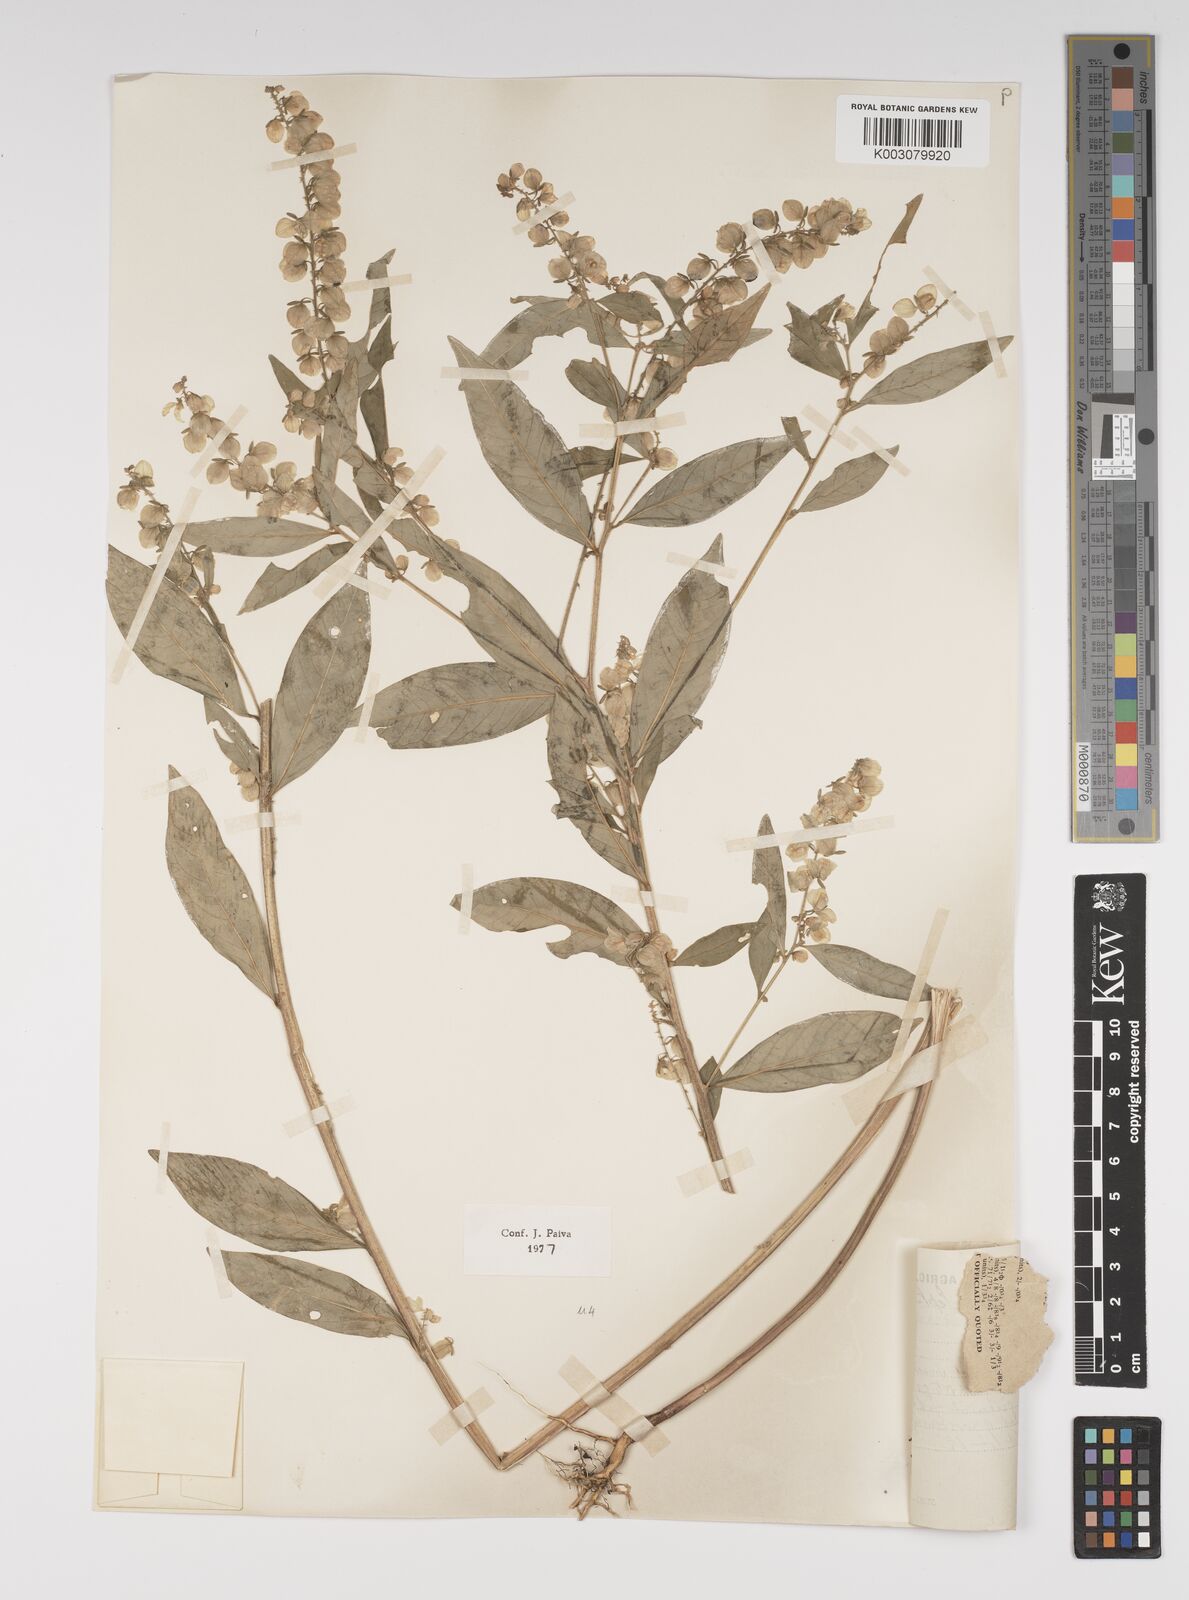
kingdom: Plantae
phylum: Tracheophyta
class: Magnoliopsida
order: Fabales
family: Polygalaceae
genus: Polygala
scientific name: Polygala persicariifolia
